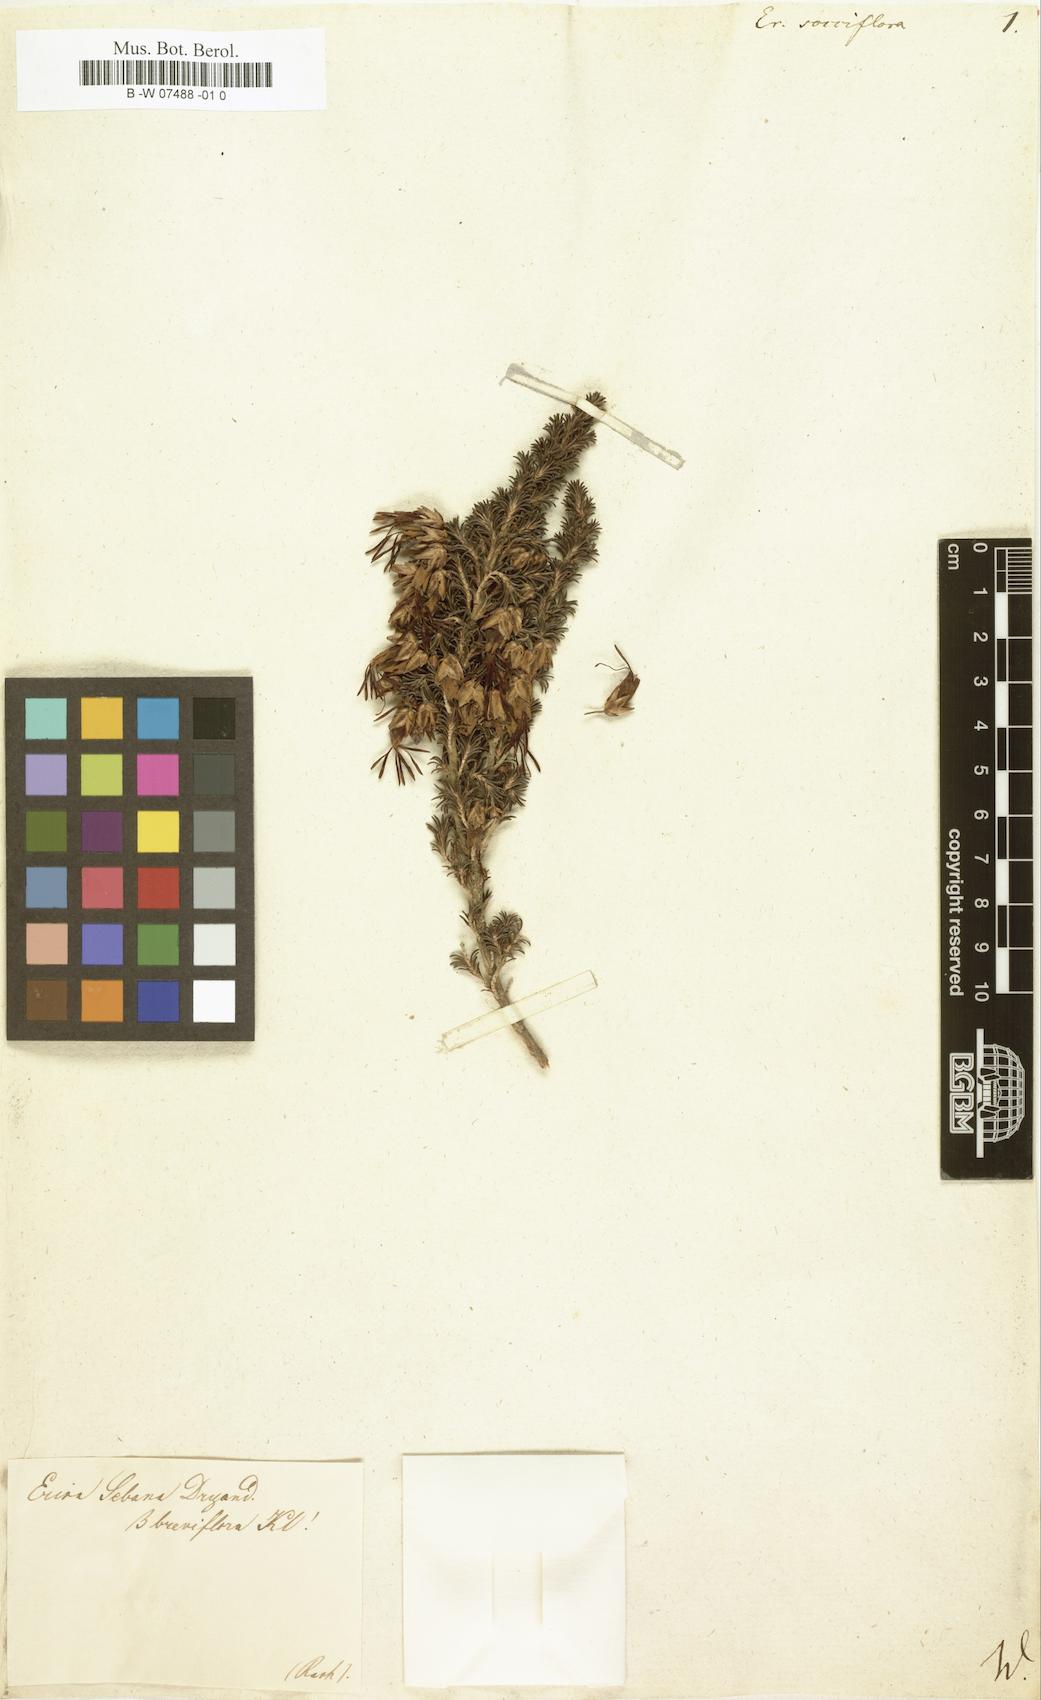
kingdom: Plantae
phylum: Tracheophyta
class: Magnoliopsida
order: Ericales
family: Ericaceae
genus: Erica
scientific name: Erica pumila
